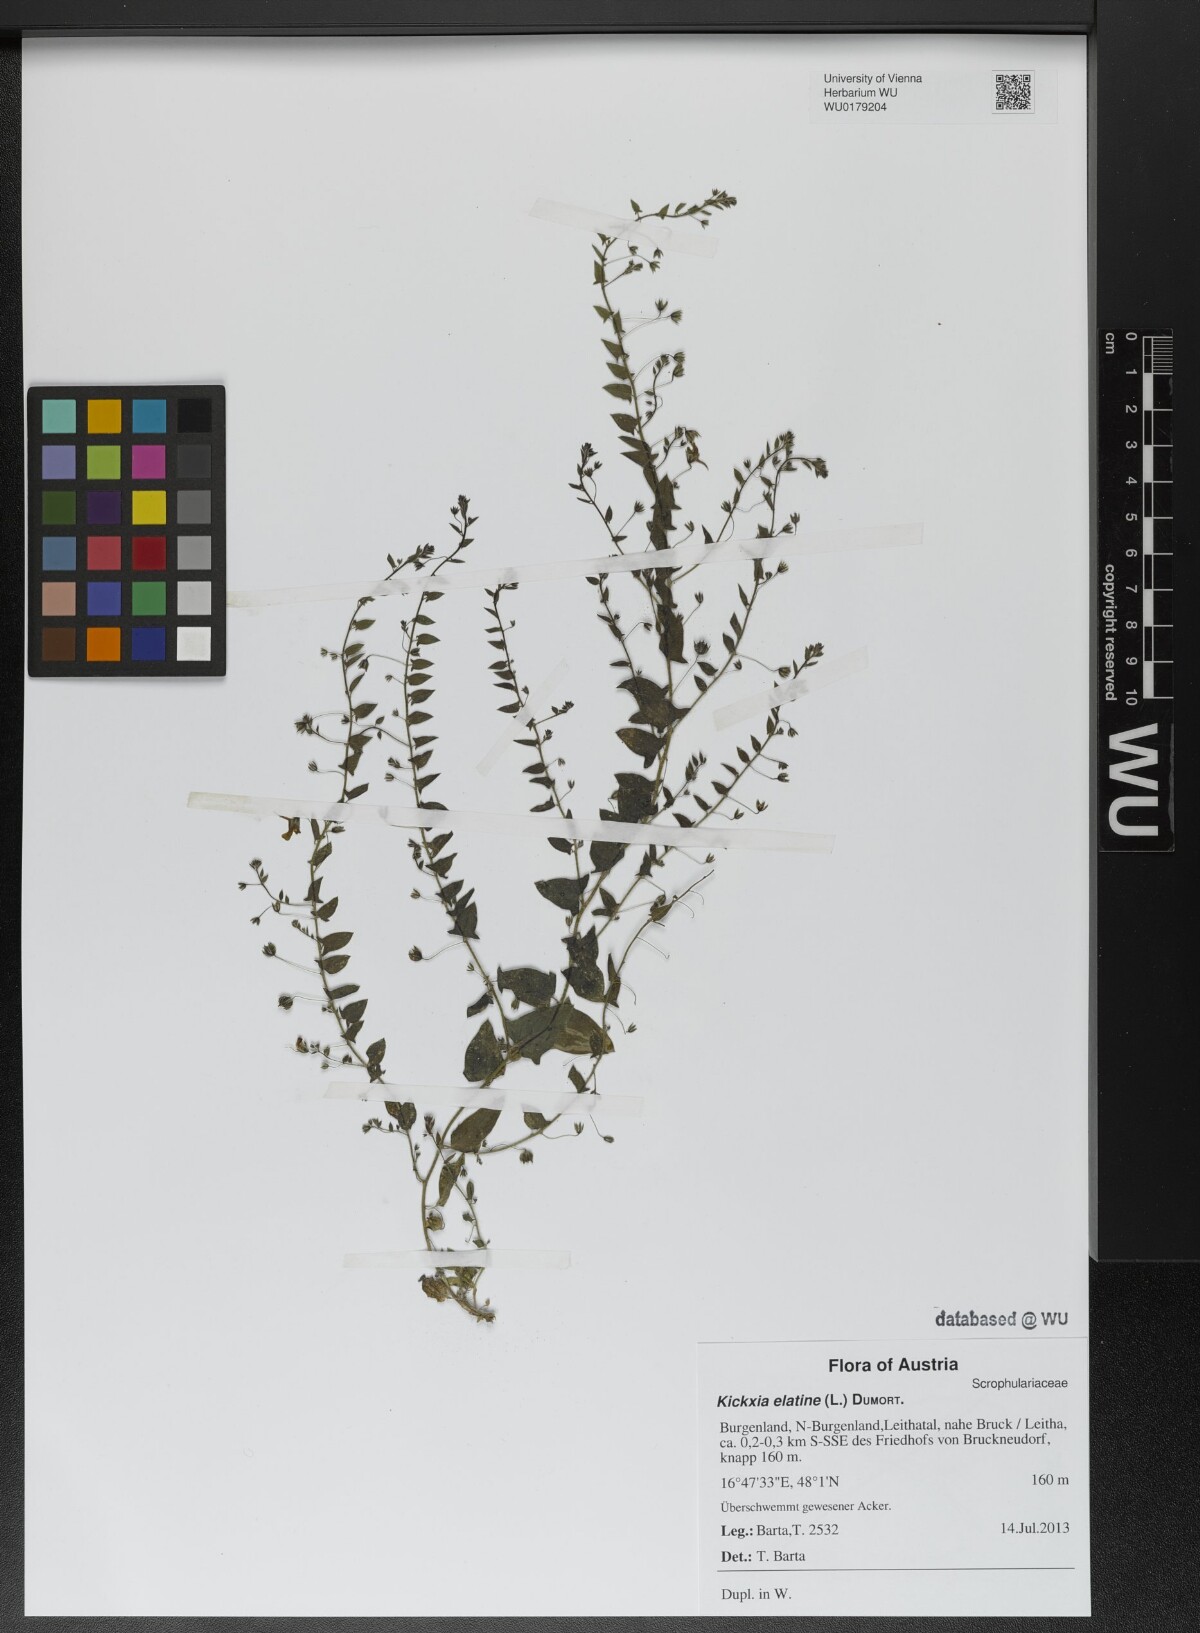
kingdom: Plantae
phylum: Tracheophyta
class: Magnoliopsida
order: Lamiales
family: Plantaginaceae
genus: Kickxia
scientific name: Kickxia elatine
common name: Sharp-leaved fluellen
